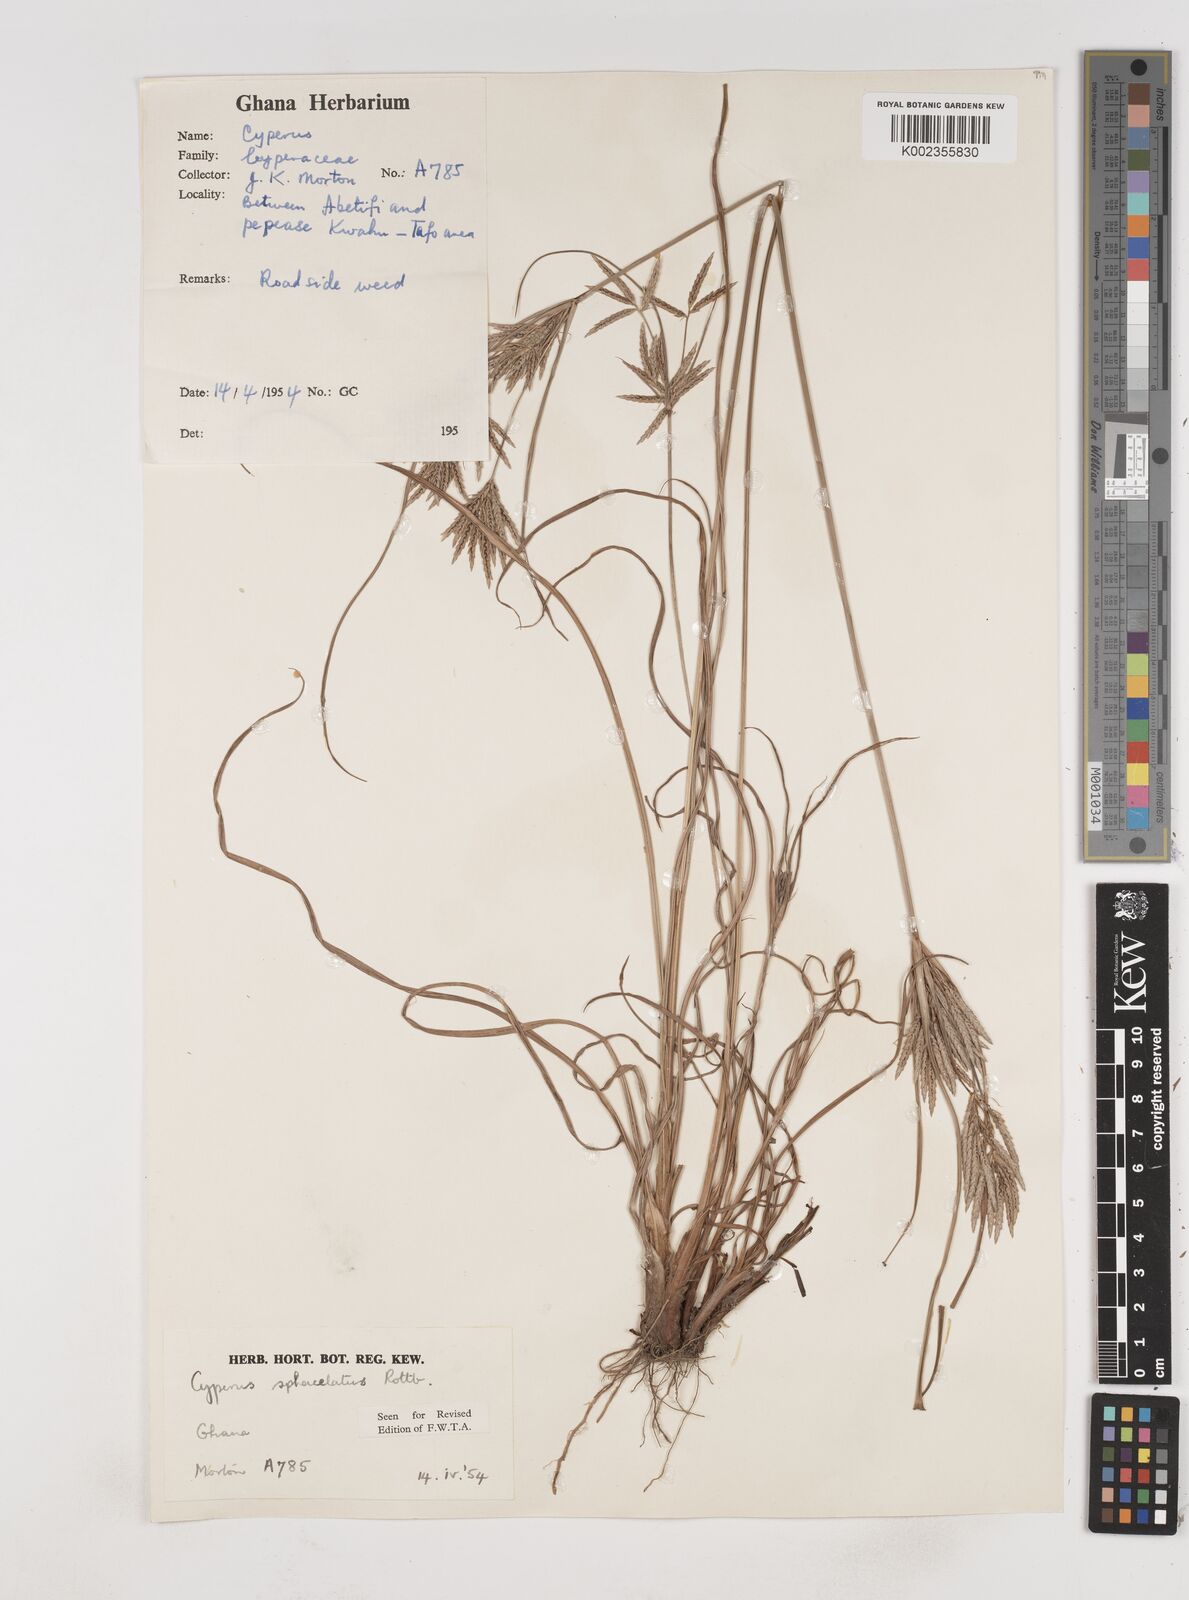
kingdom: Plantae
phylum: Tracheophyta
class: Liliopsida
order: Poales
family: Cyperaceae
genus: Cyperus
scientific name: Cyperus sphacelatus
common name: Roadside flatsedge
